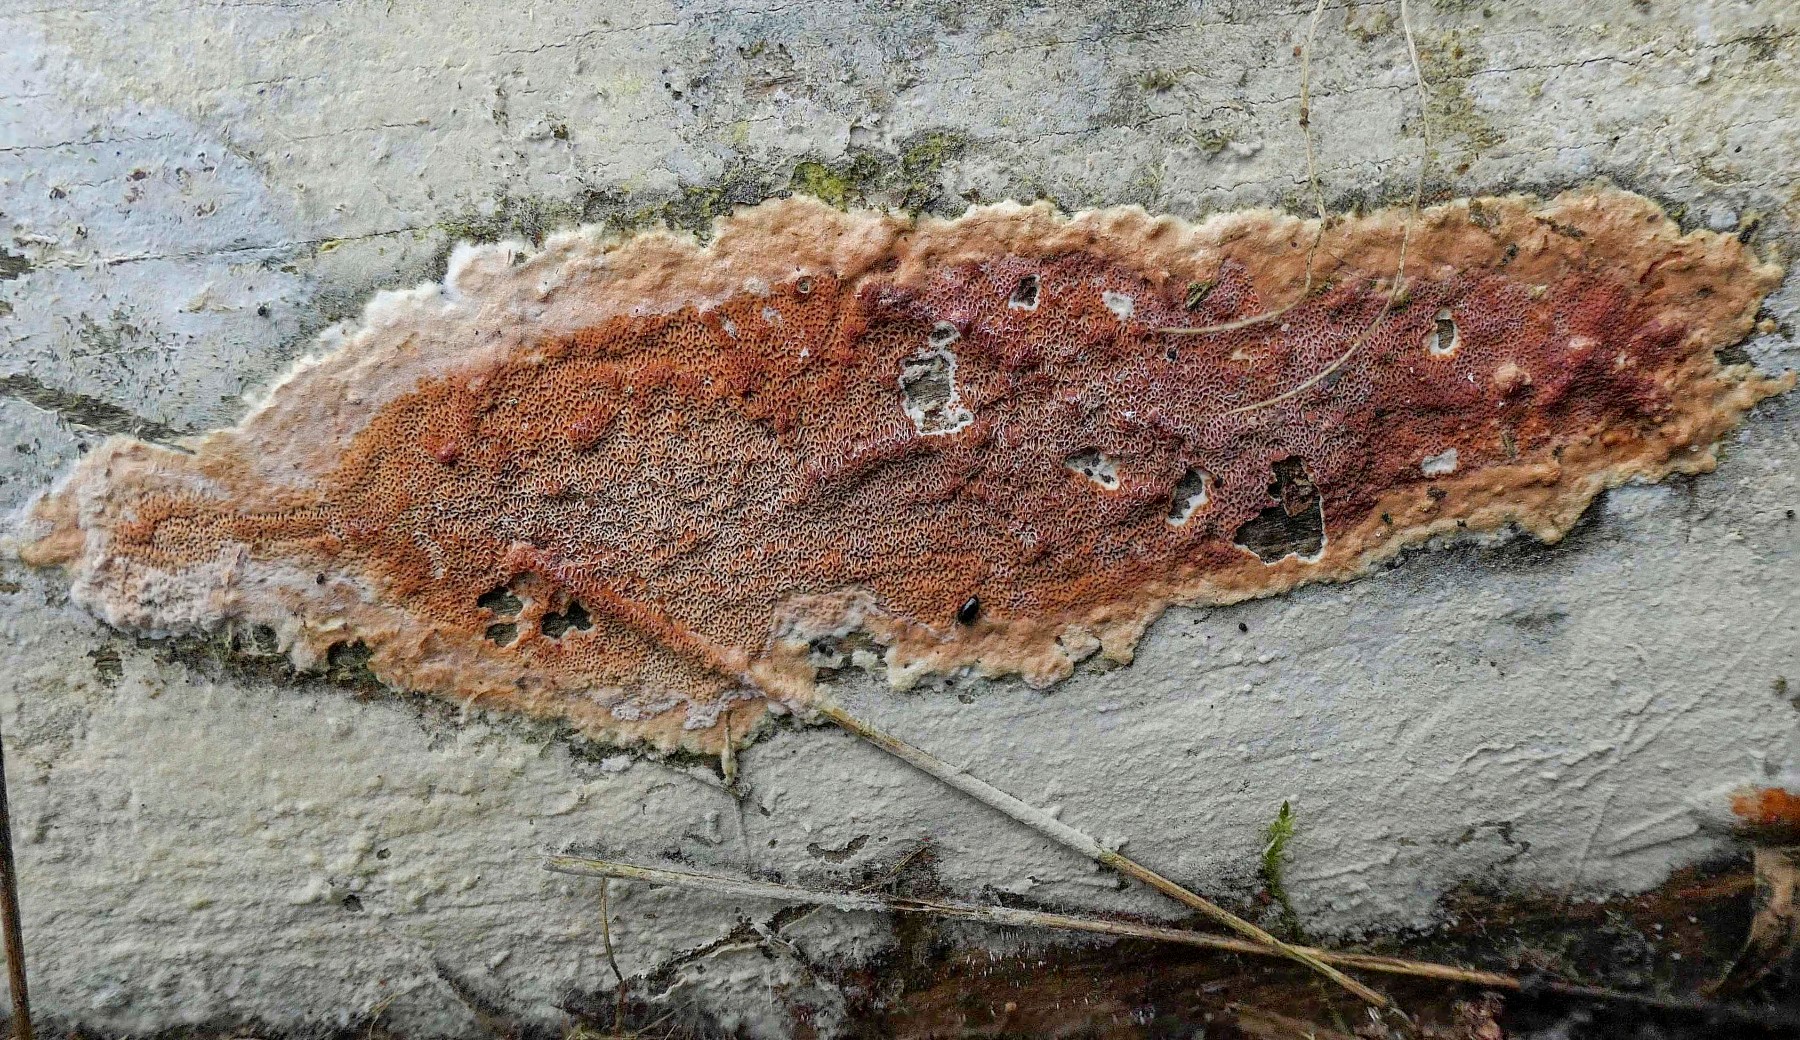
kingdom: Fungi
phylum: Basidiomycota
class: Agaricomycetes
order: Polyporales
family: Irpicaceae
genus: Meruliopsis
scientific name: Meruliopsis taxicola
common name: purpurbrun foldporesvamp
